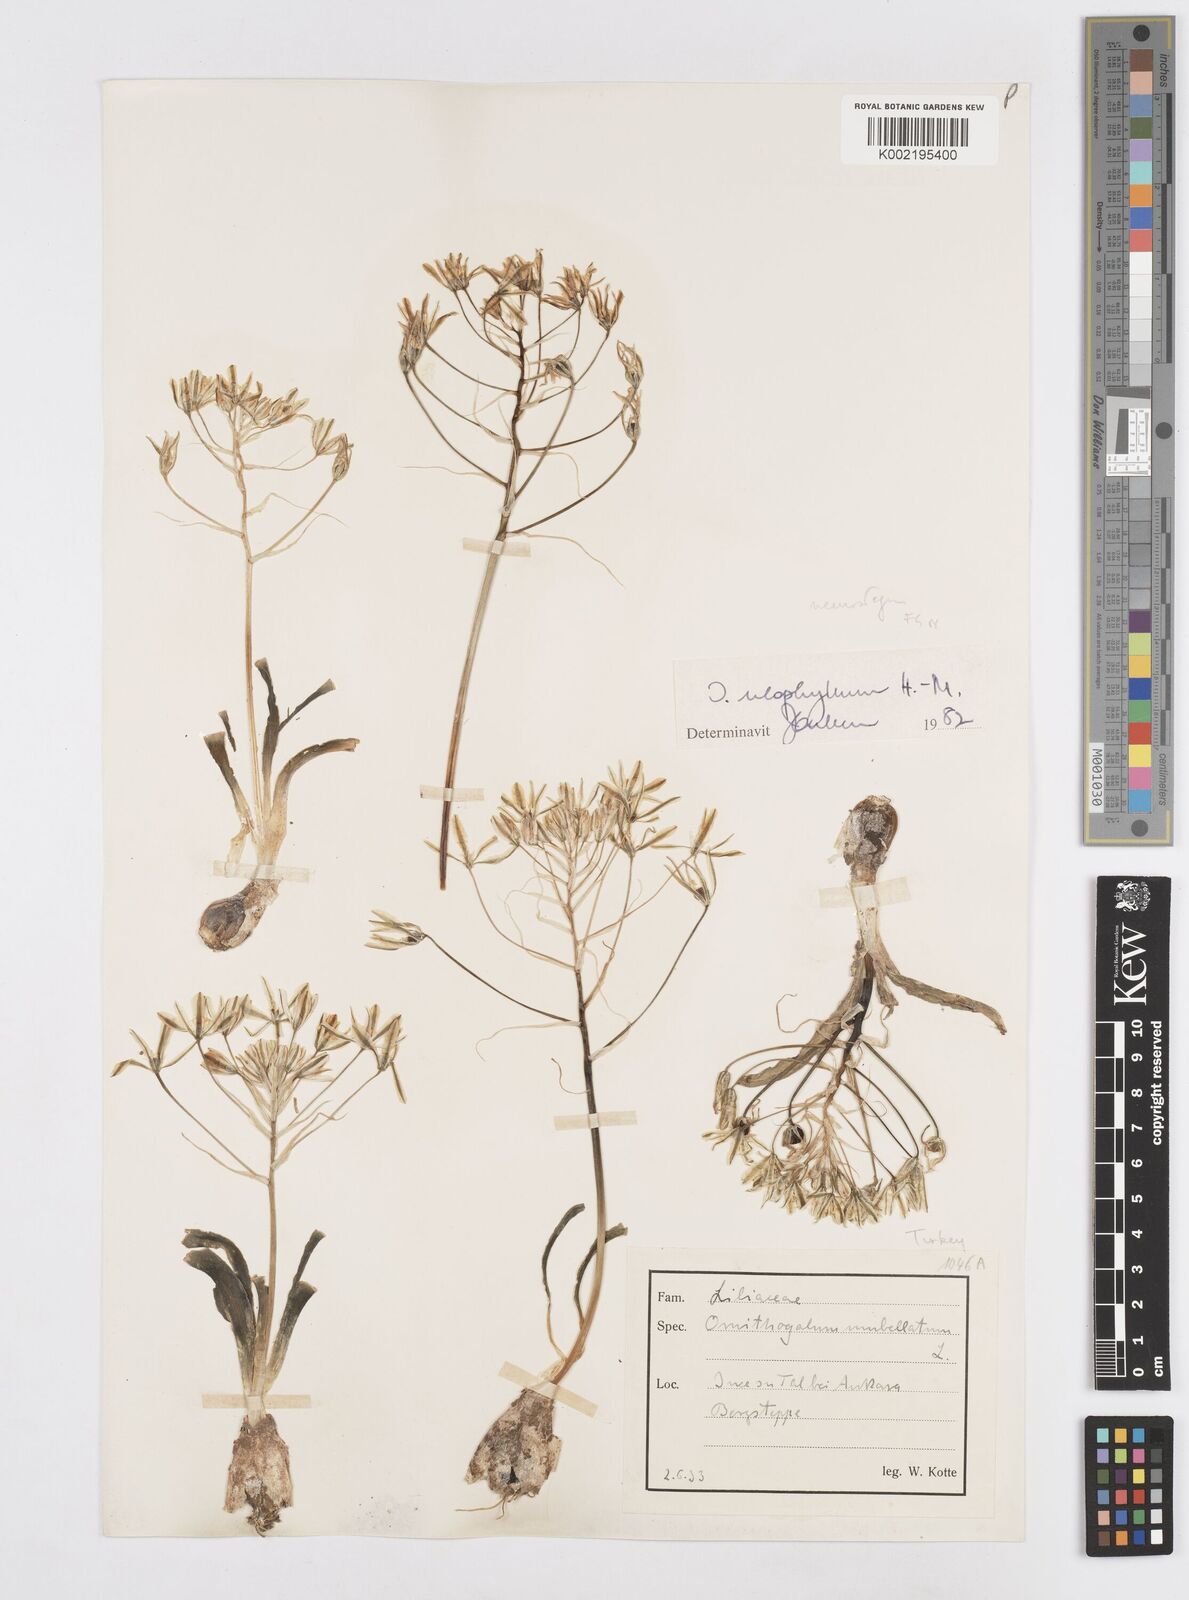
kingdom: Plantae
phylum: Tracheophyta
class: Liliopsida
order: Asparagales
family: Asparagaceae
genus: Ornithogalum
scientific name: Ornithogalum neurostegium
